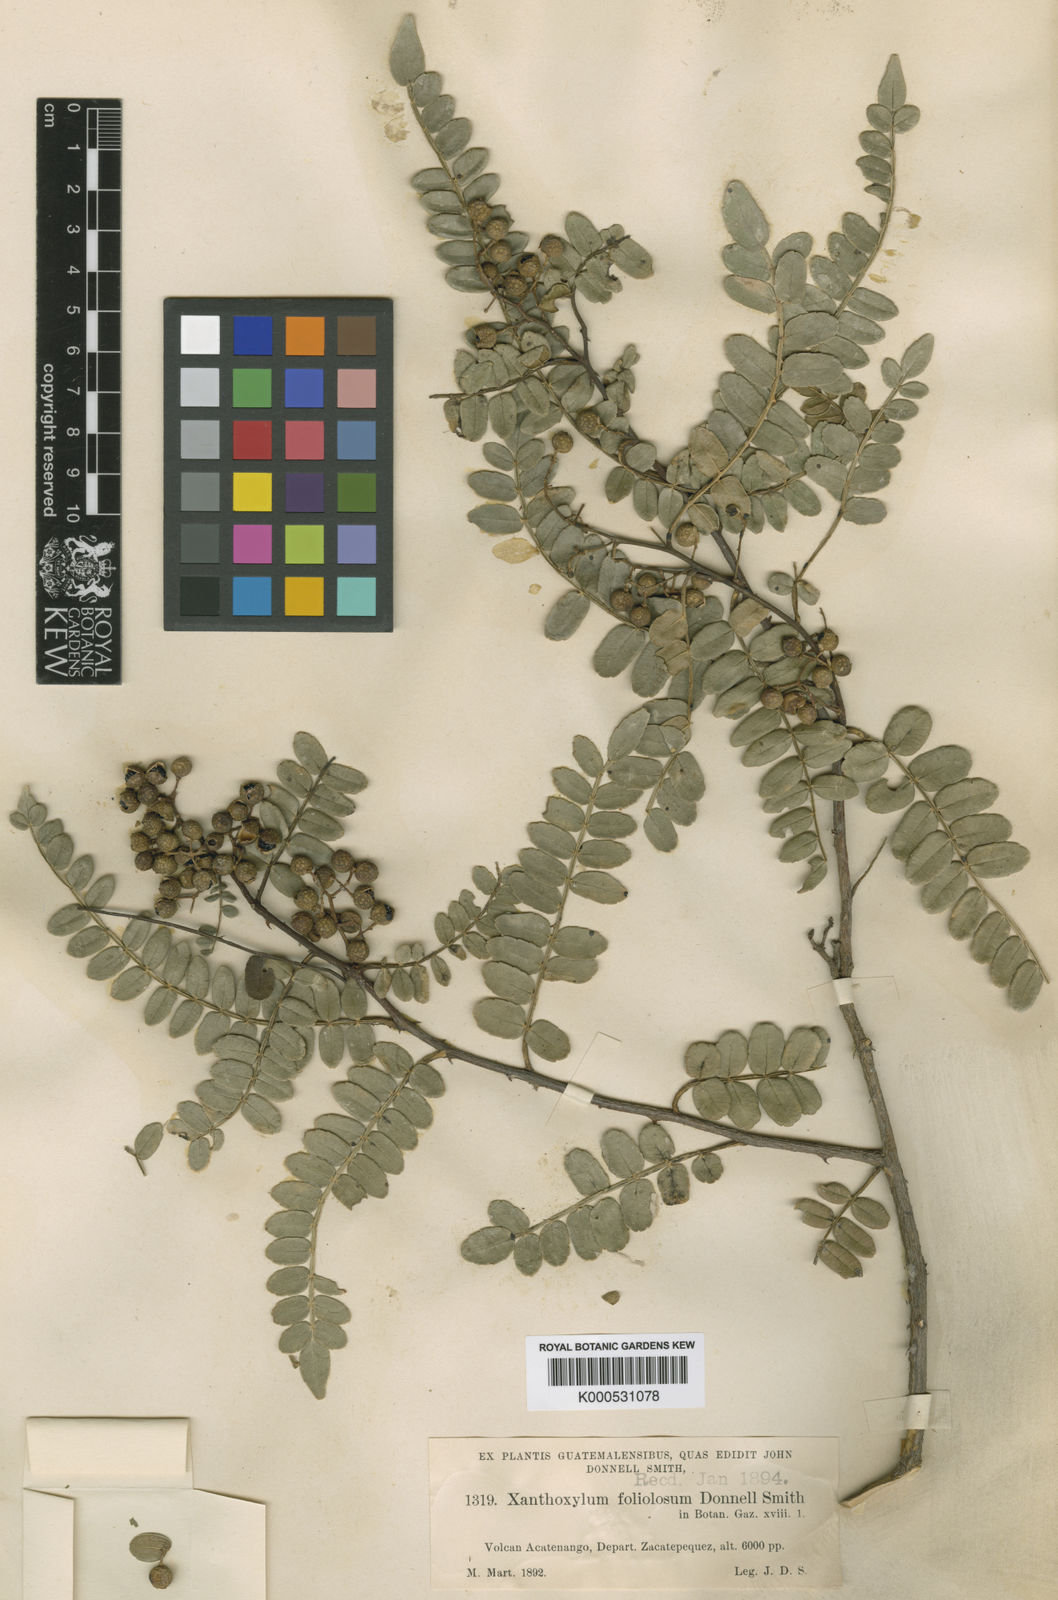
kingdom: Plantae
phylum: Tracheophyta
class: Magnoliopsida
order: Sapindales
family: Rutaceae
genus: Zanthoxylum
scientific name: Zanthoxylum foliolosum
